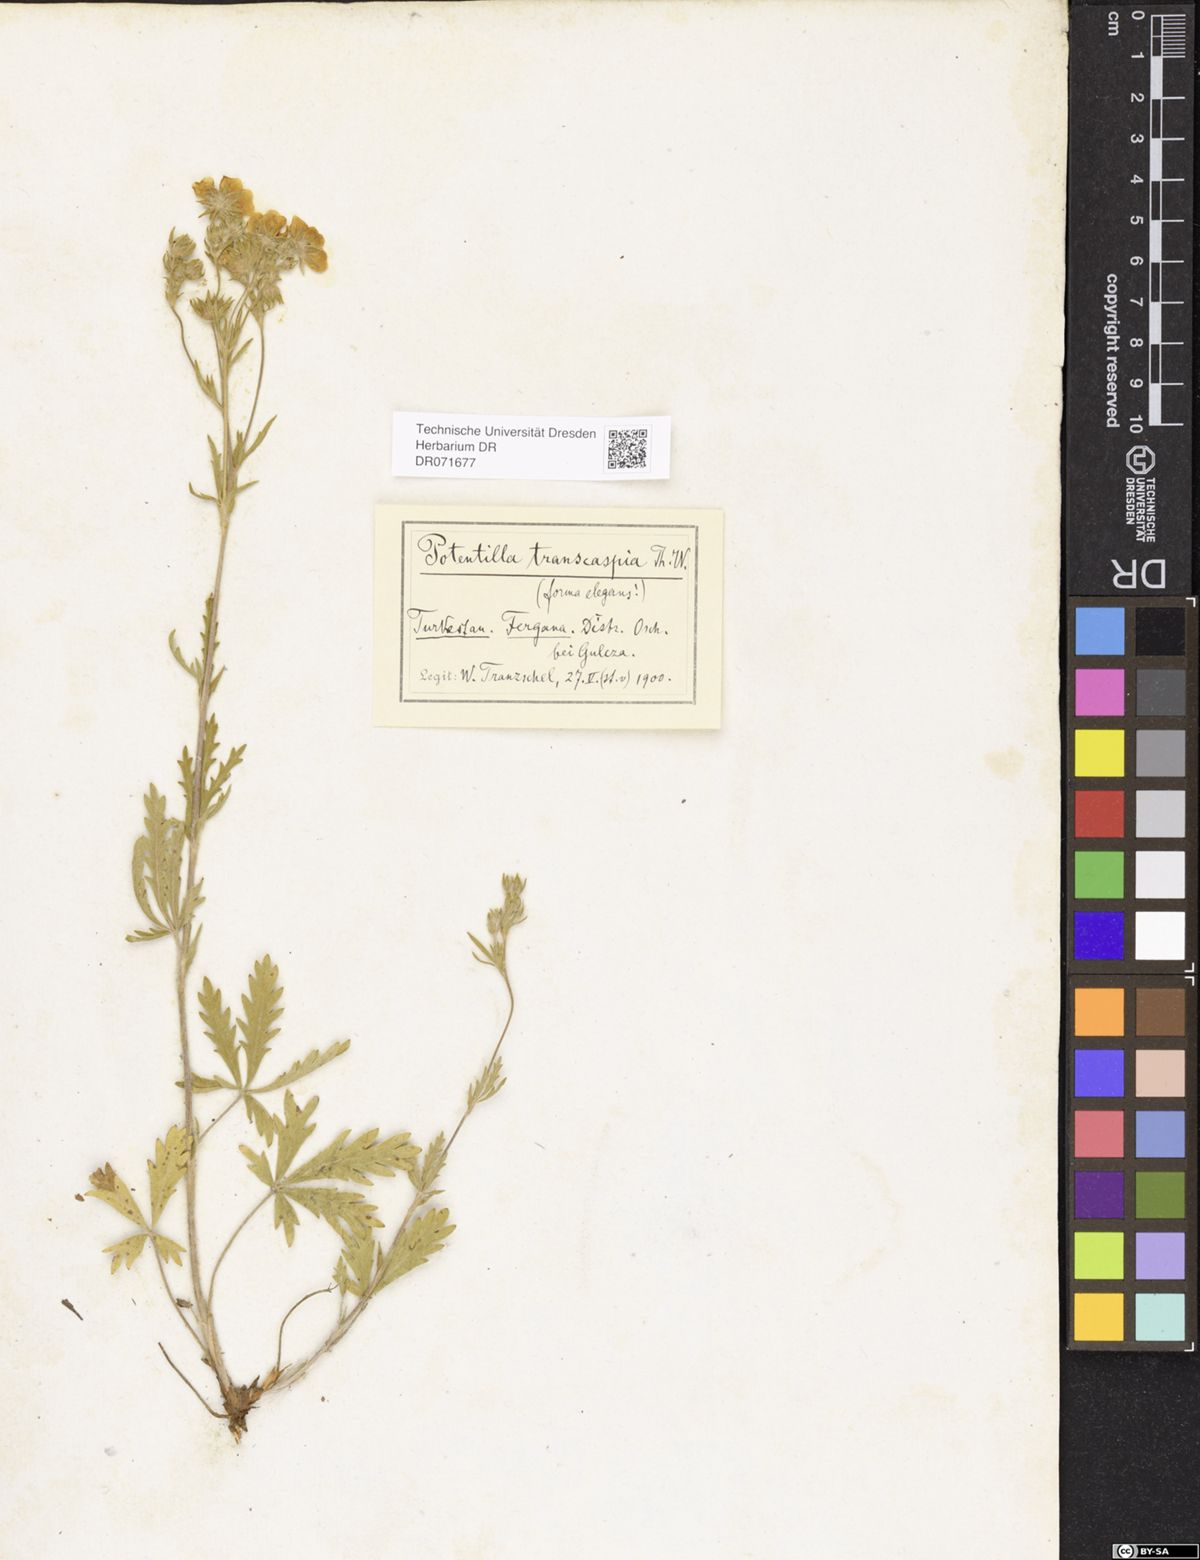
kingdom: Plantae
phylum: Tracheophyta
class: Magnoliopsida
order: Rosales
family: Rosaceae
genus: Potentilla
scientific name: Potentilla pedata
